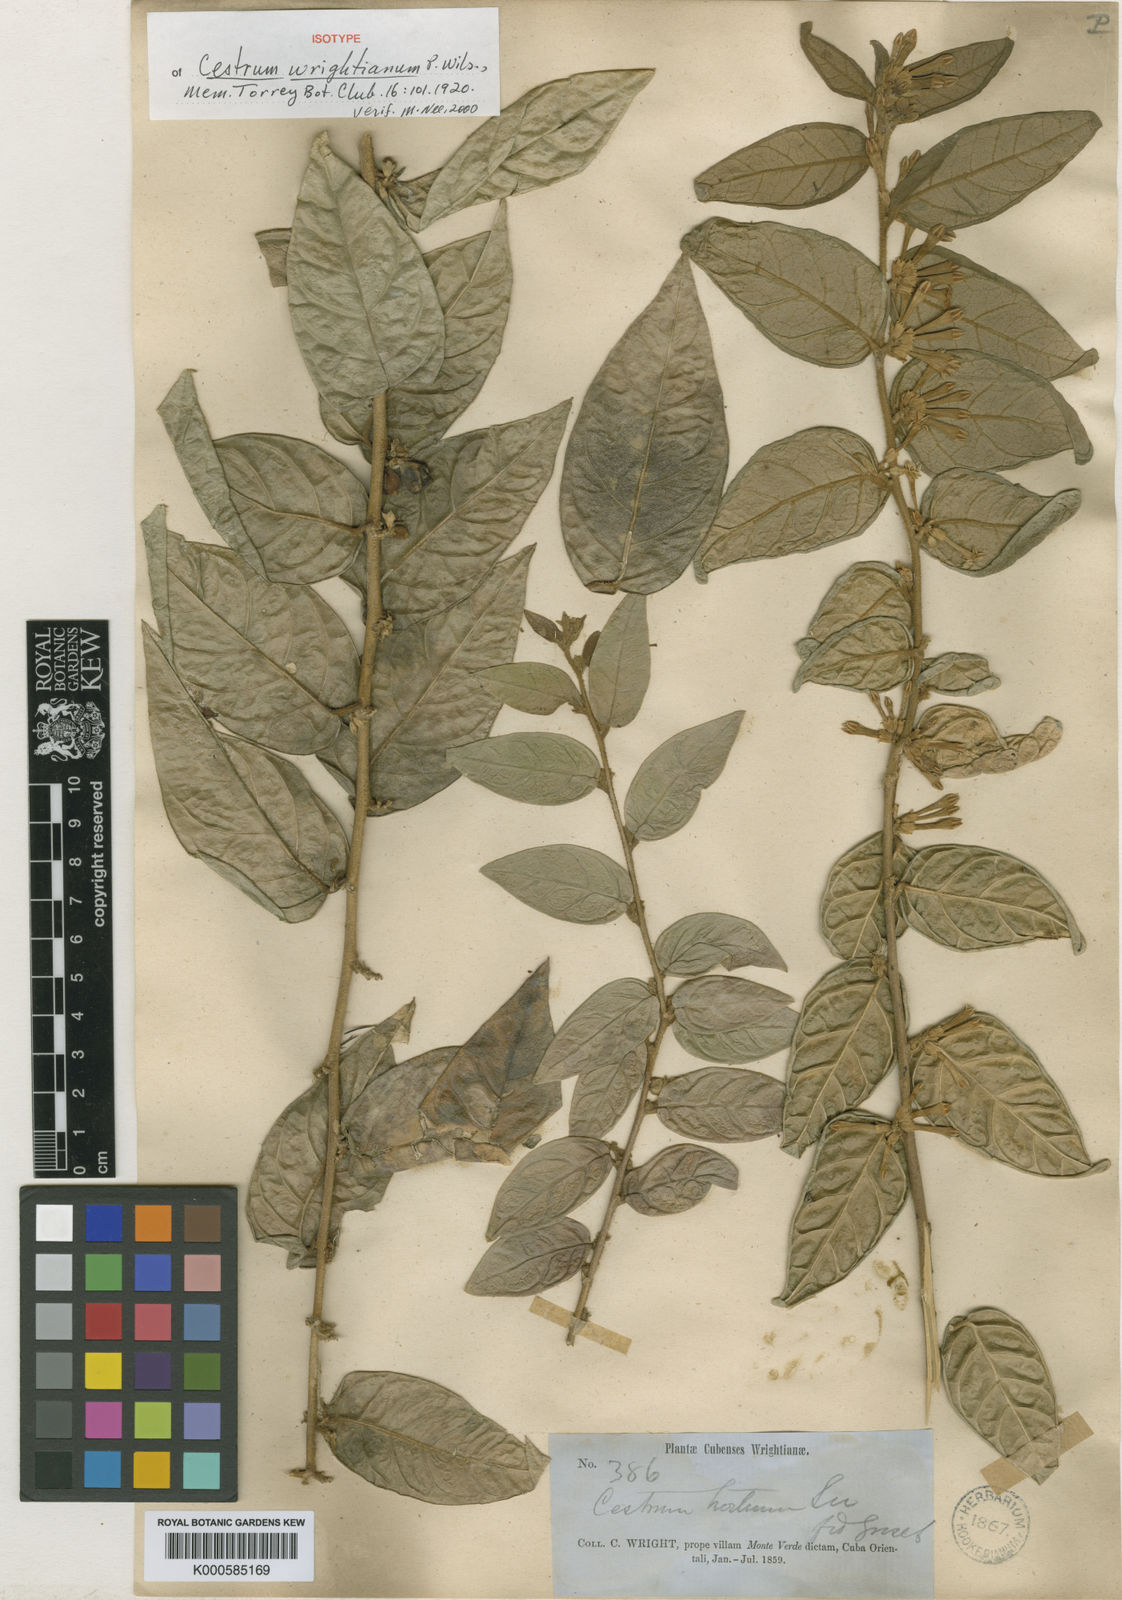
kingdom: Plantae
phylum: Tracheophyta
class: Magnoliopsida
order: Solanales
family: Solanaceae
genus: Cestrum
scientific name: Cestrum
